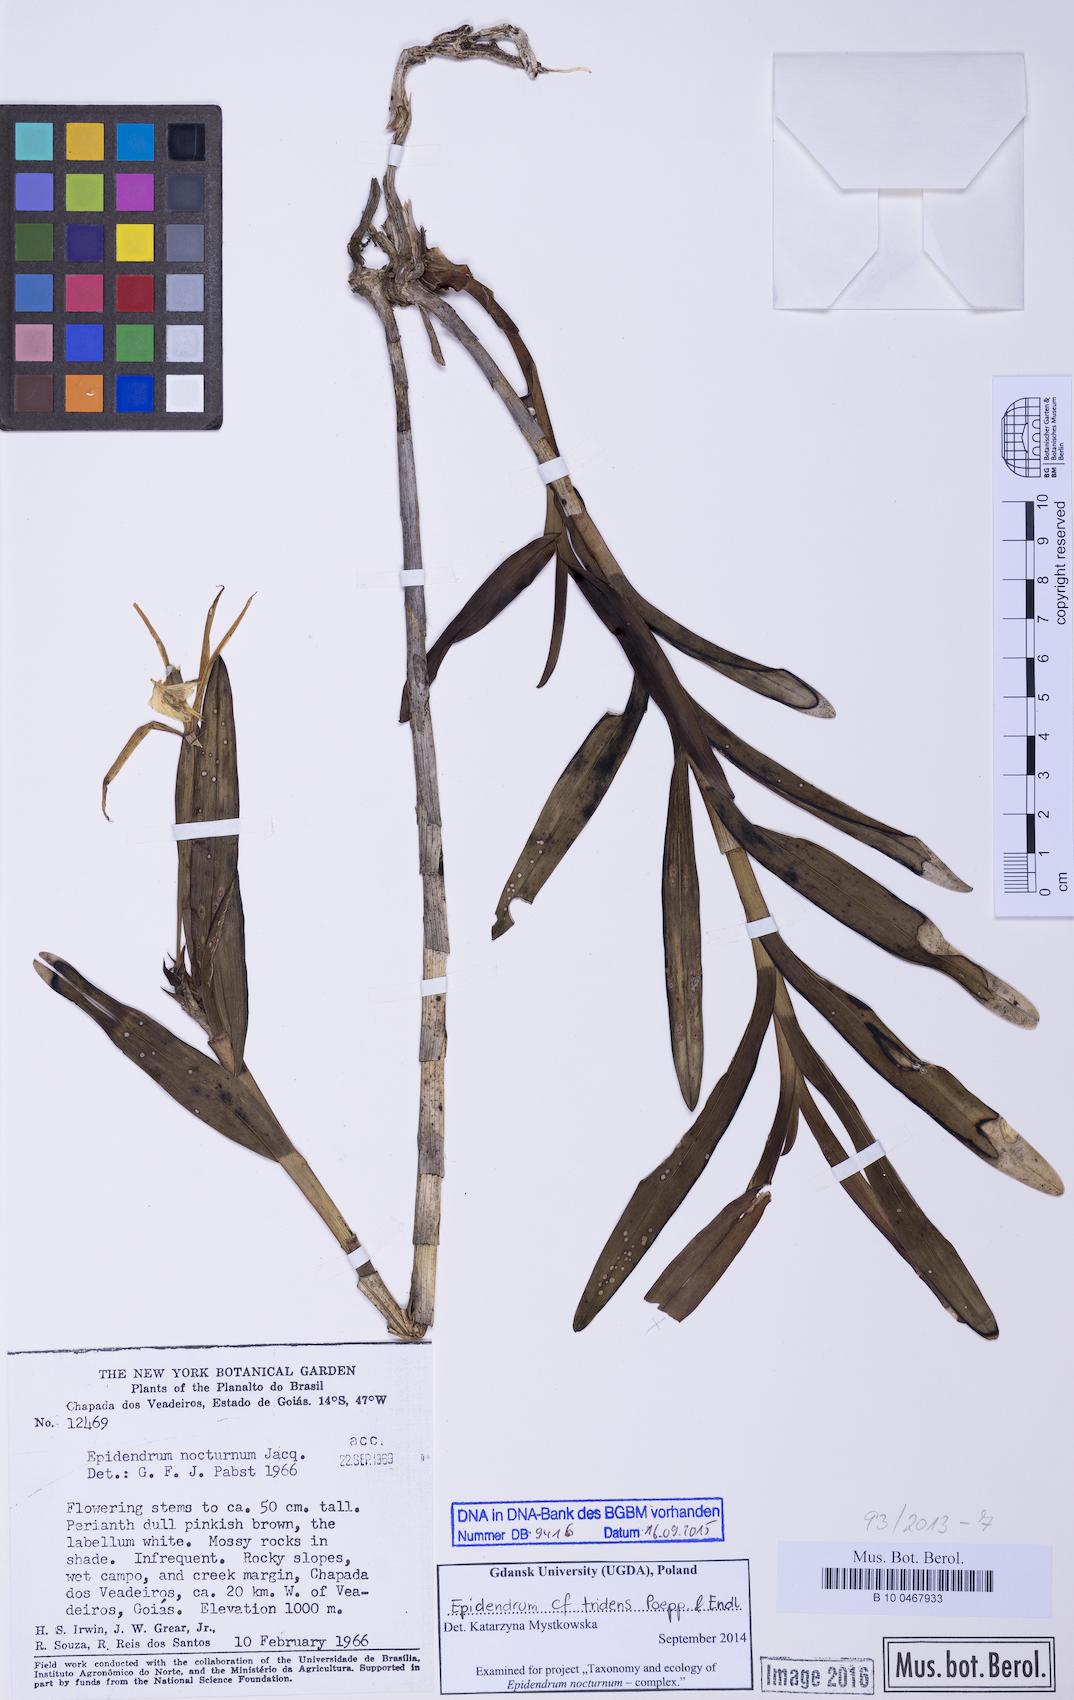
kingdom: Plantae
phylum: Tracheophyta
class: Liliopsida
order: Asparagales
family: Orchidaceae
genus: Epidendrum
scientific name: Epidendrum tridens
